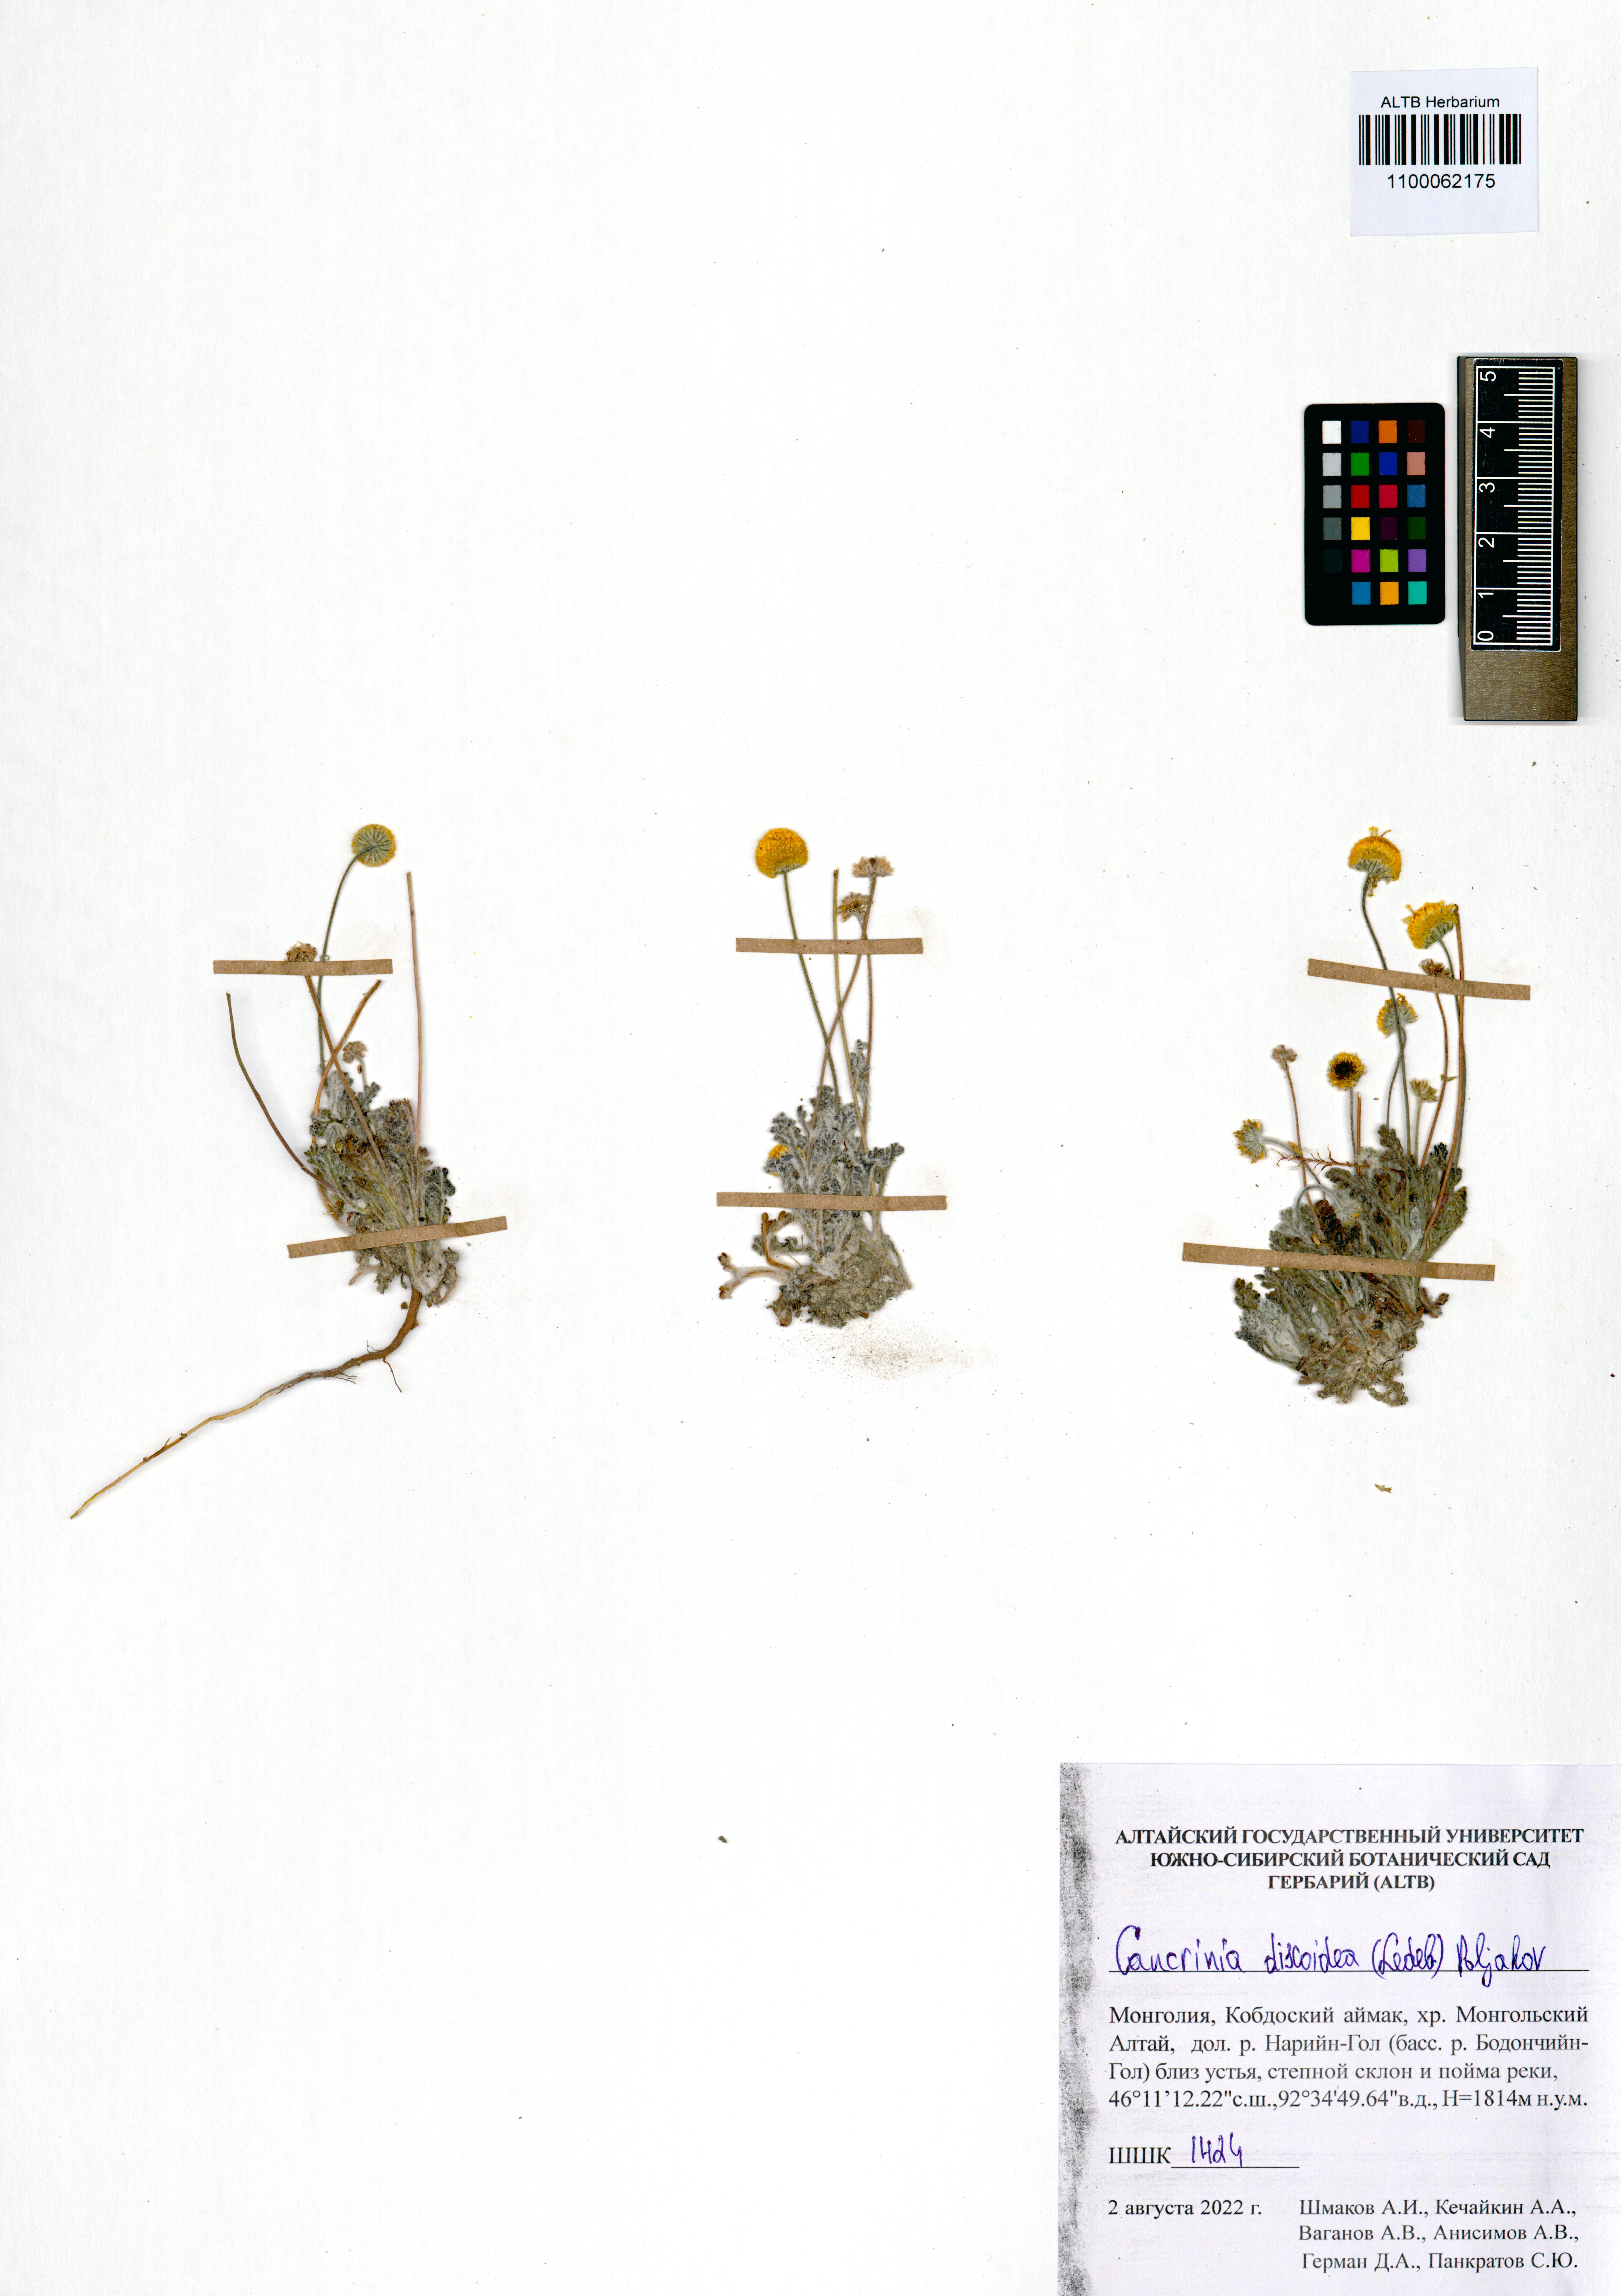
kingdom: Plantae
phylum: Tracheophyta
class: Magnoliopsida
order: Asterales
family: Asteraceae
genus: Cancrinia
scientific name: Cancrinia discoidea
